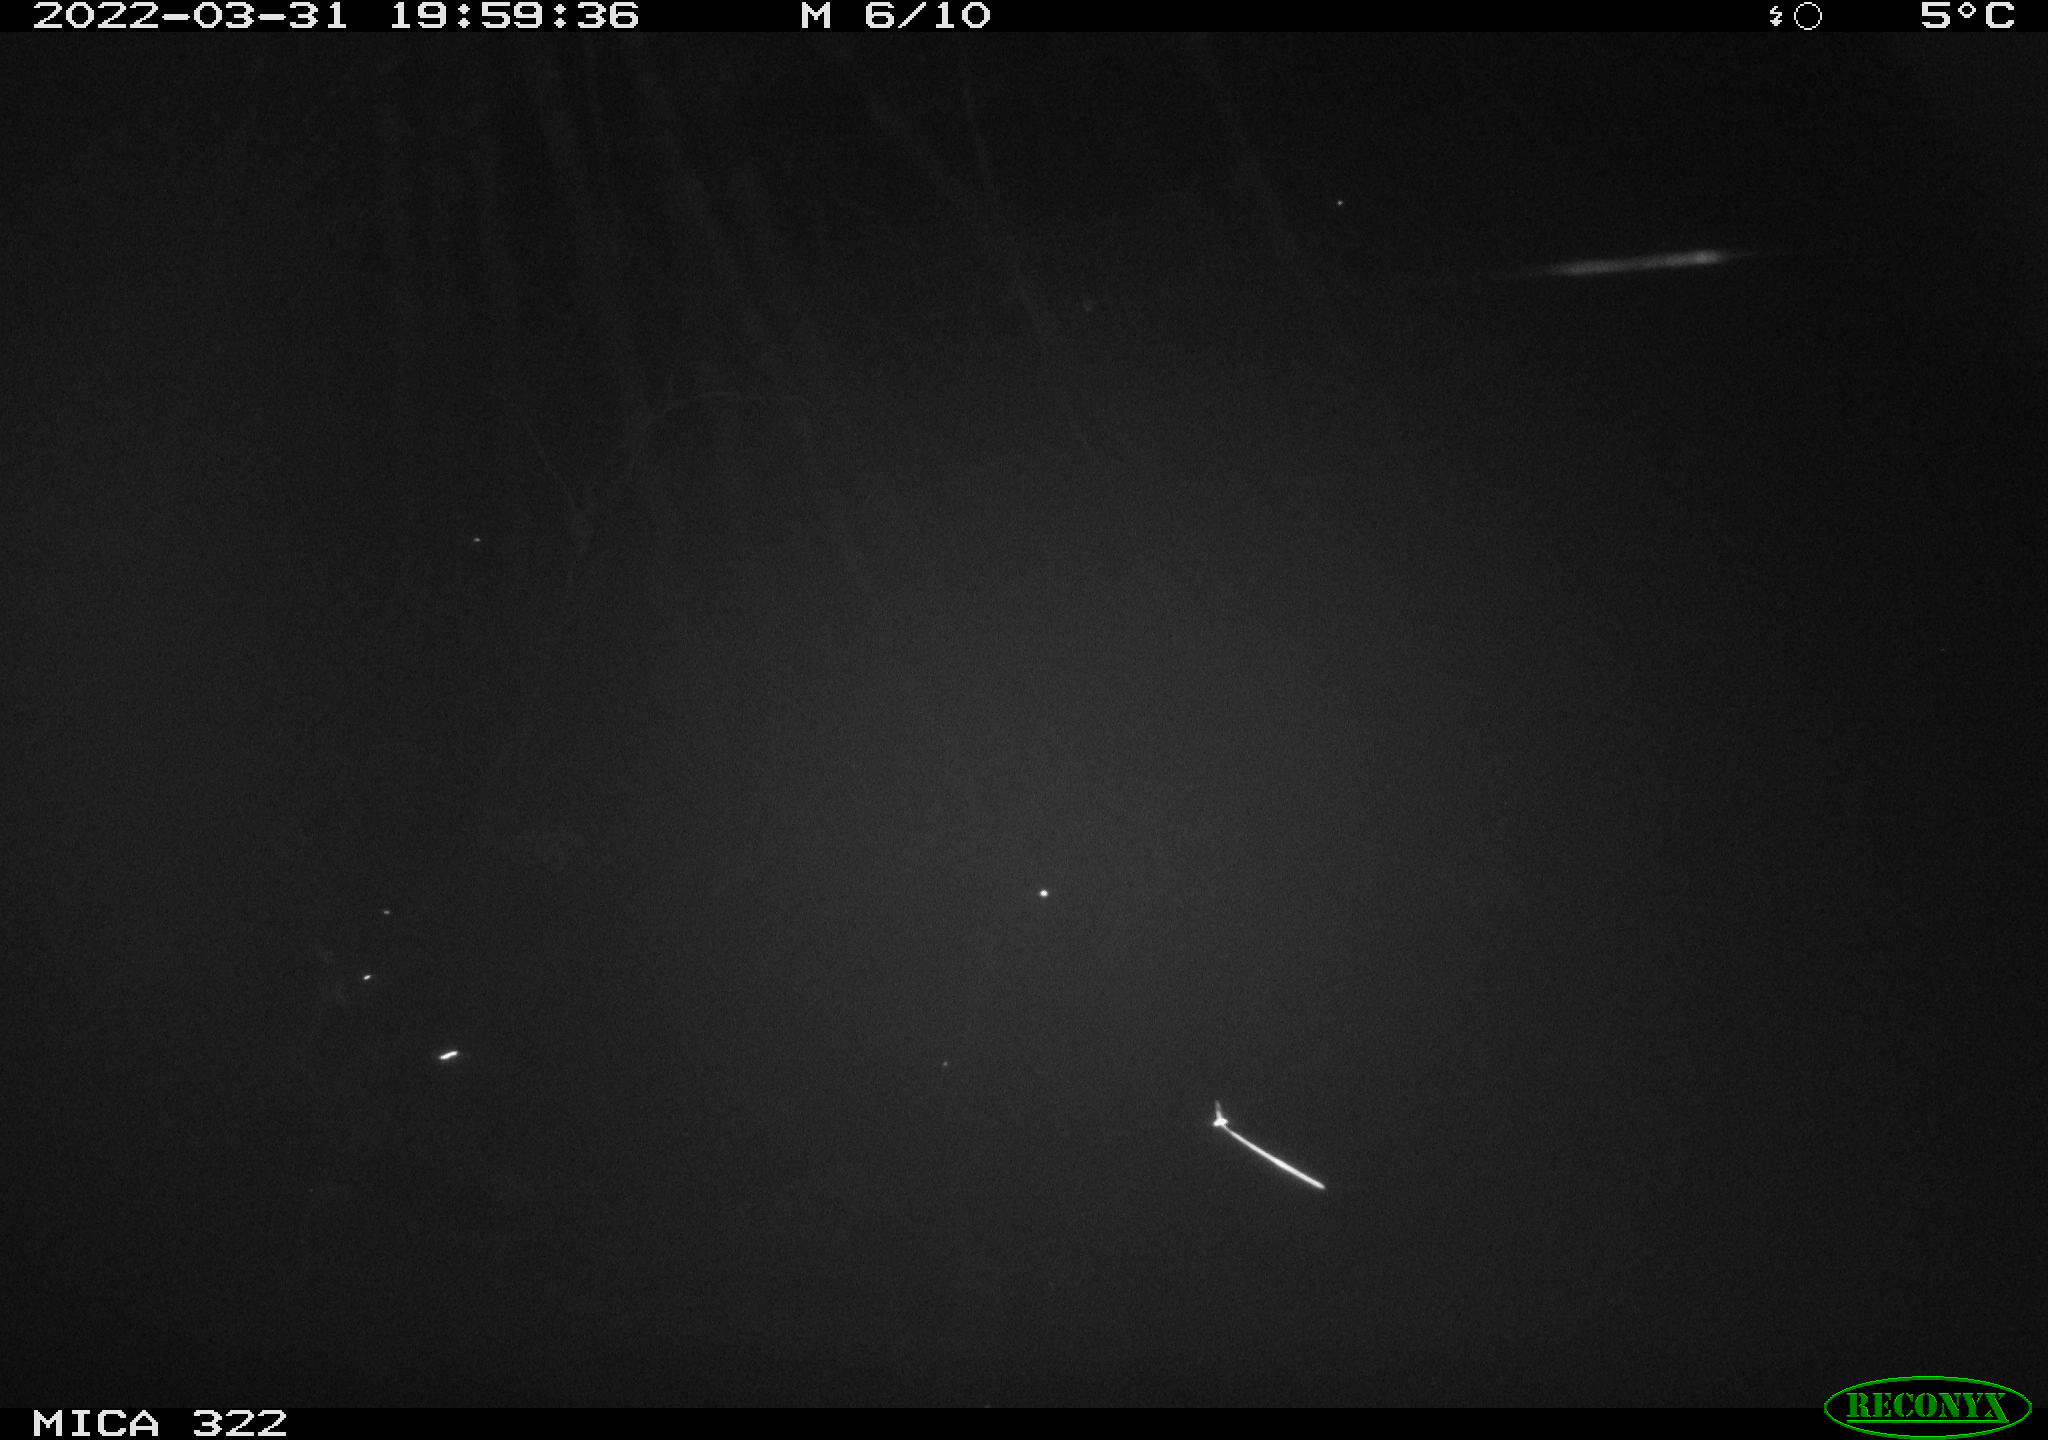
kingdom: Animalia
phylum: Chordata
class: Aves
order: Gruiformes
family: Rallidae
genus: Gallinula
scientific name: Gallinula chloropus
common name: Common moorhen
